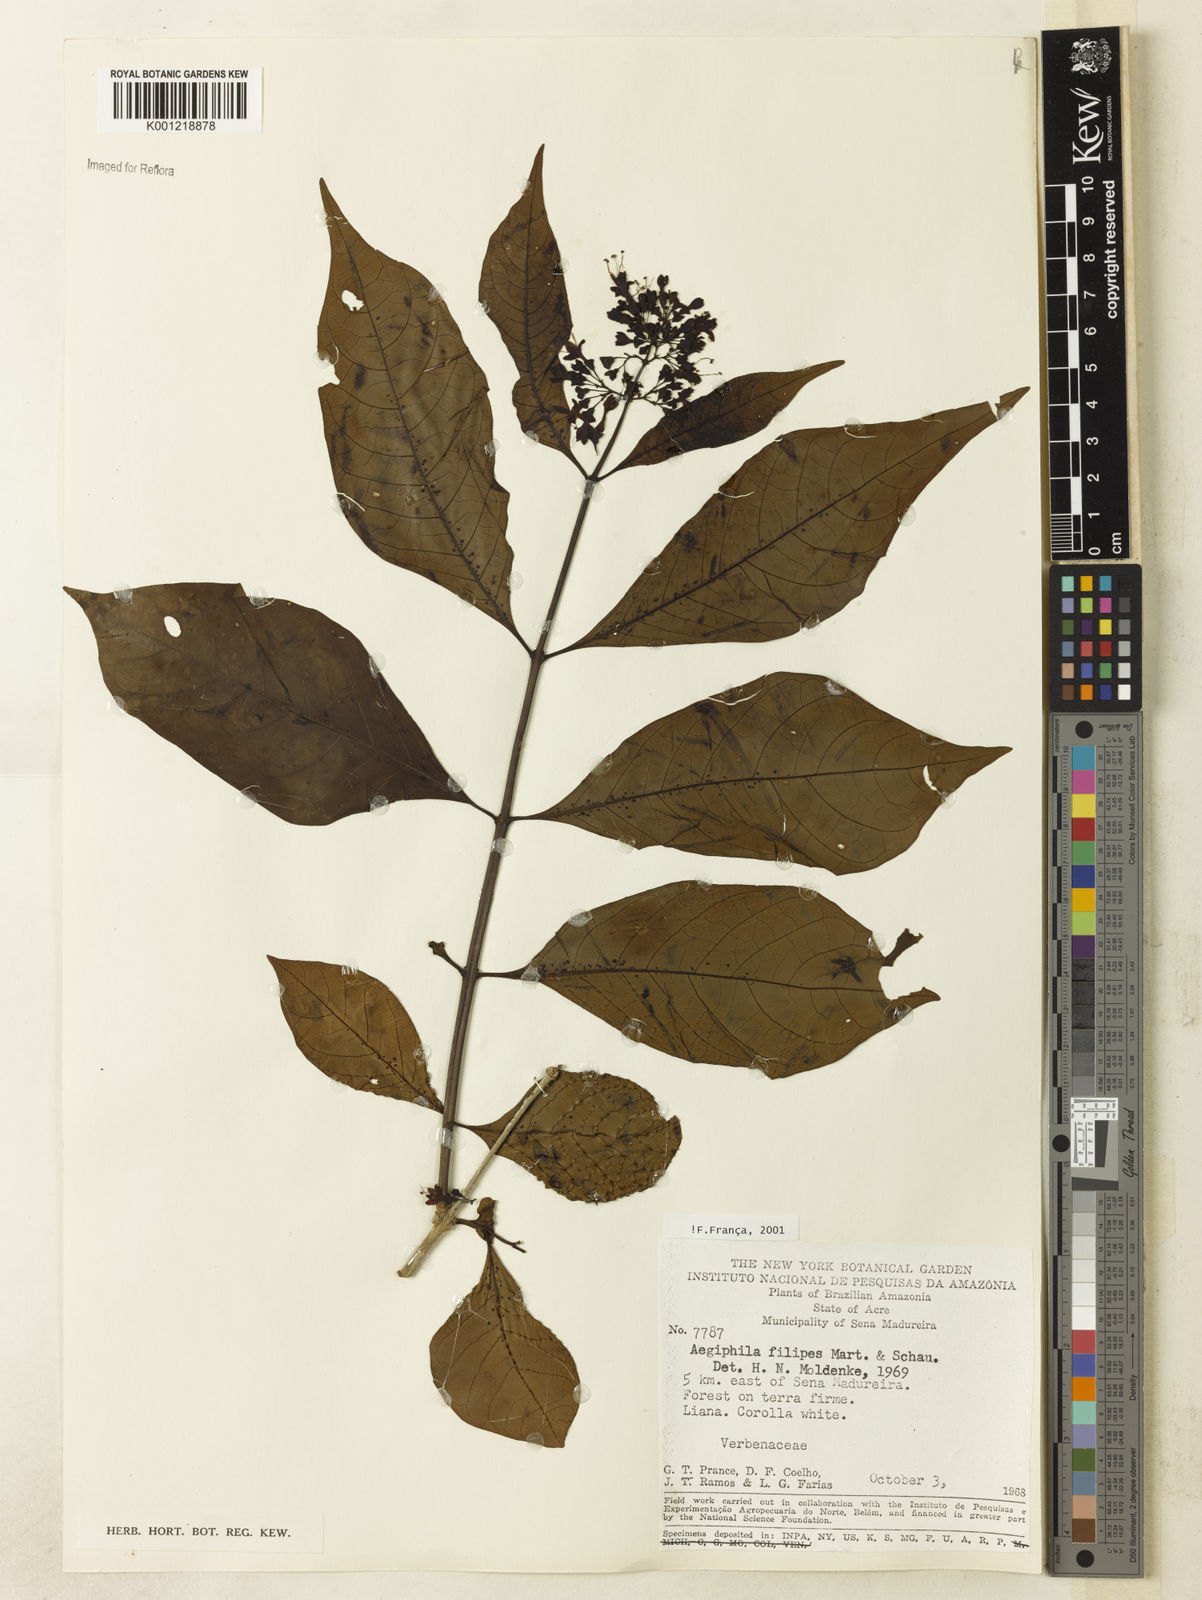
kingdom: Plantae
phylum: Tracheophyta
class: Magnoliopsida
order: Lamiales
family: Lamiaceae
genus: Aegiphila
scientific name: Aegiphila filipes
